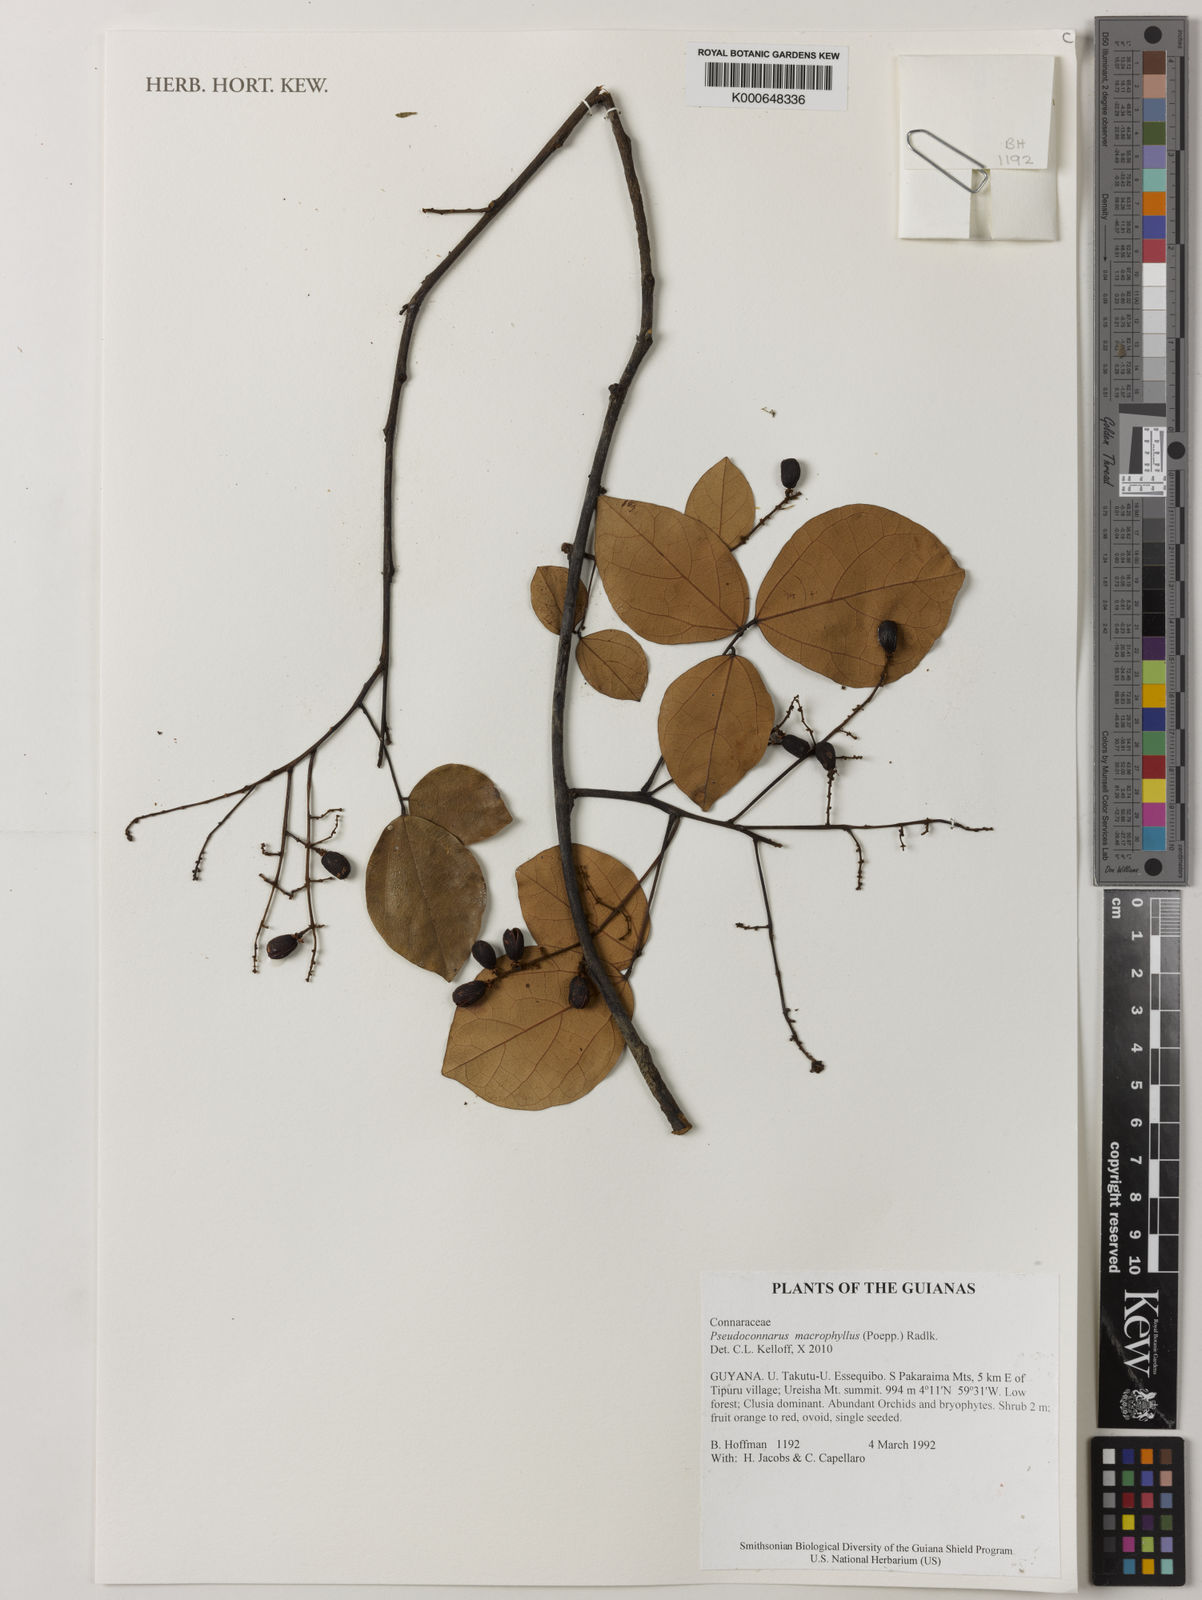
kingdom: Plantae
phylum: Tracheophyta
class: Magnoliopsida
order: Oxalidales
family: Connaraceae
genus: Pseudoconnarus
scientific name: Pseudoconnarus macrophyllus
